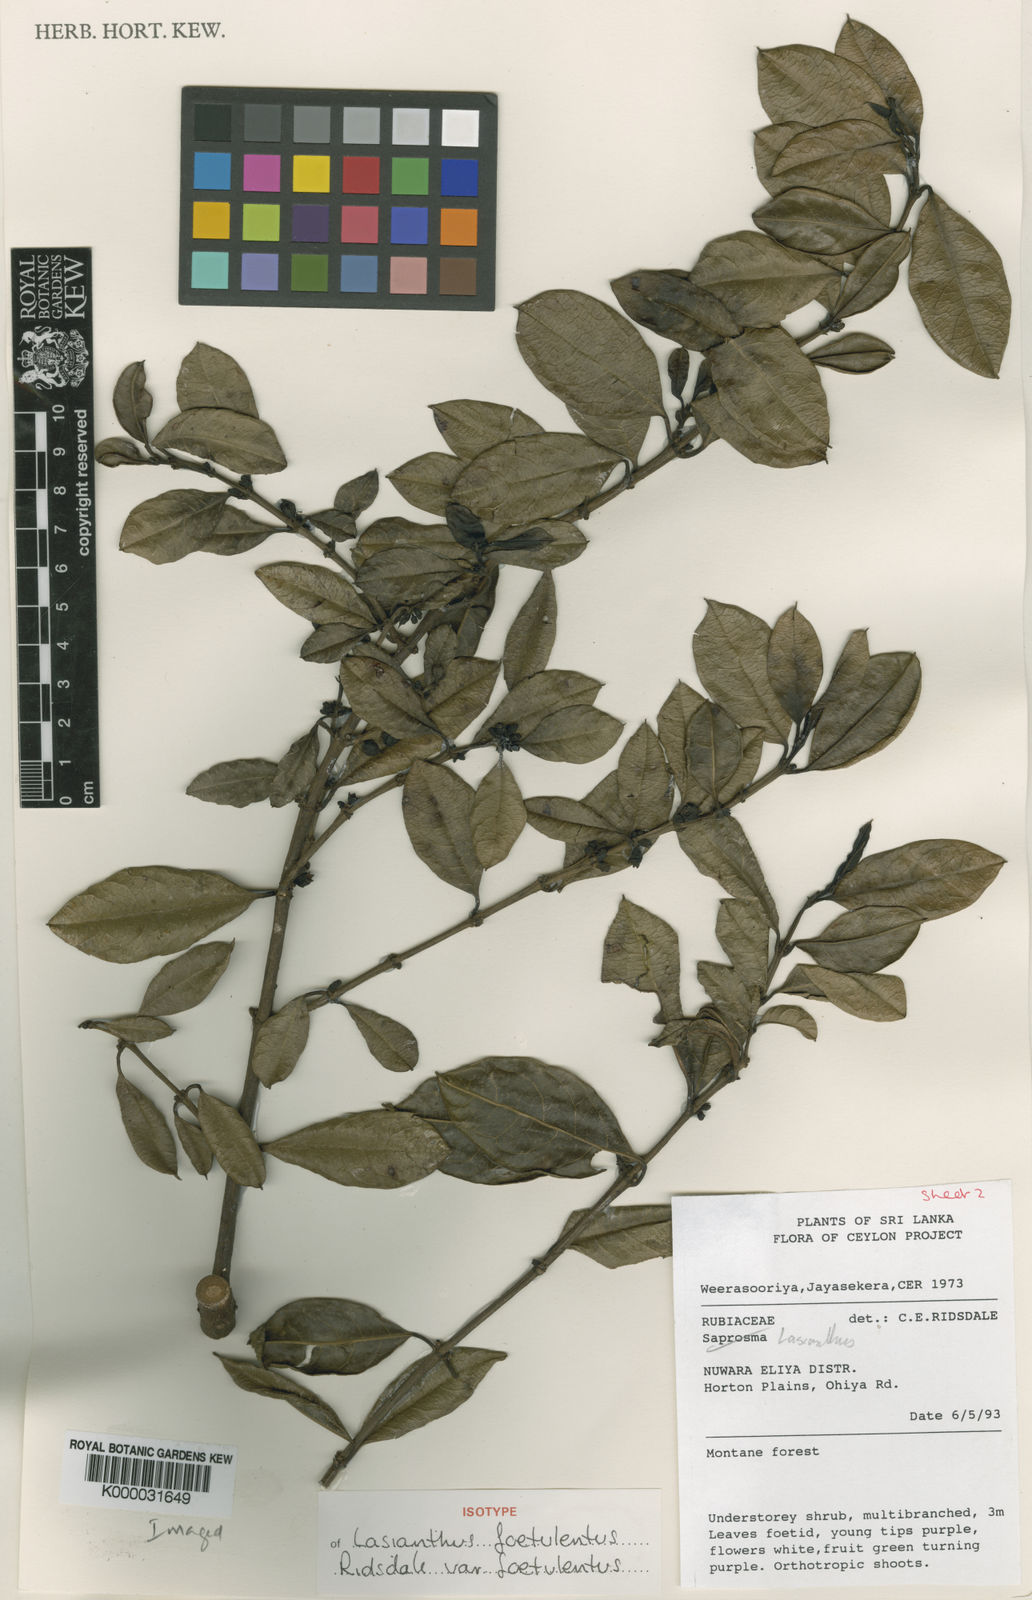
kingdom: Plantae
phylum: Tracheophyta
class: Magnoliopsida
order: Gentianales
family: Rubiaceae
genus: Lasianthus
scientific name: Lasianthus foetulentus
